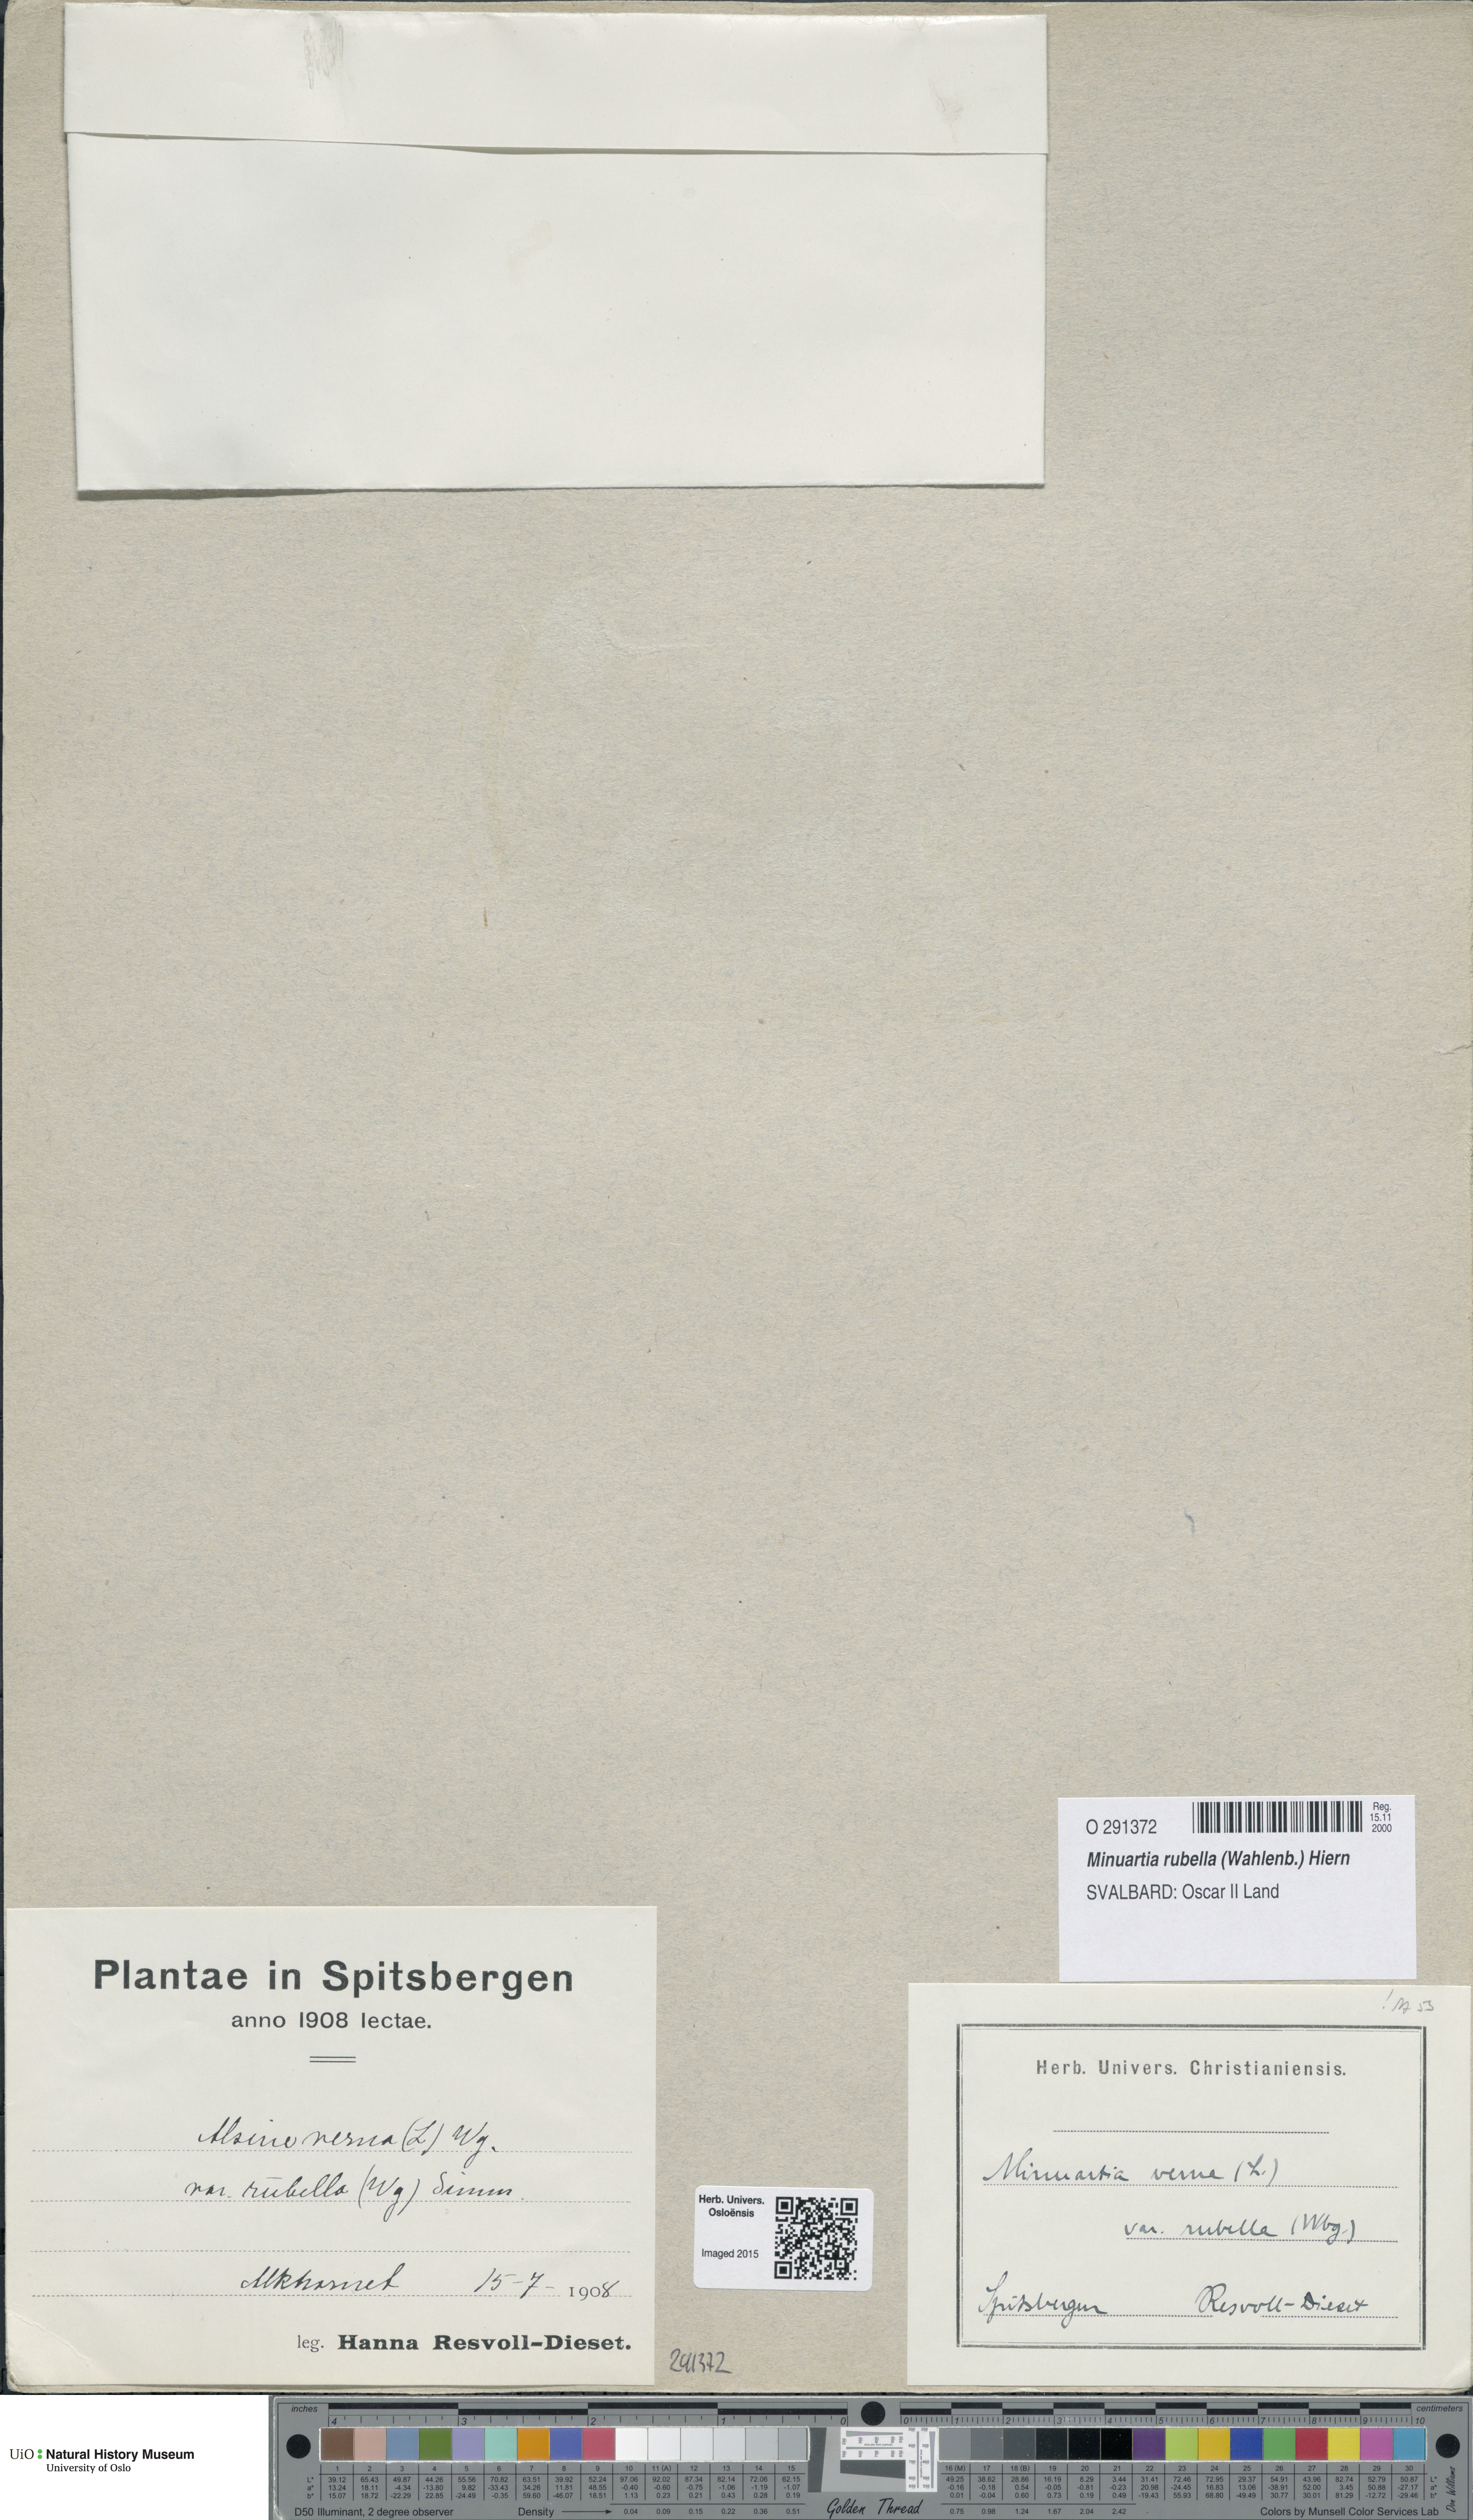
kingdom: Plantae
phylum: Tracheophyta
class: Magnoliopsida
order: Caryophyllales
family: Caryophyllaceae
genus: Sabulina
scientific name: Sabulina rubella
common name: Beautiful sandwort
